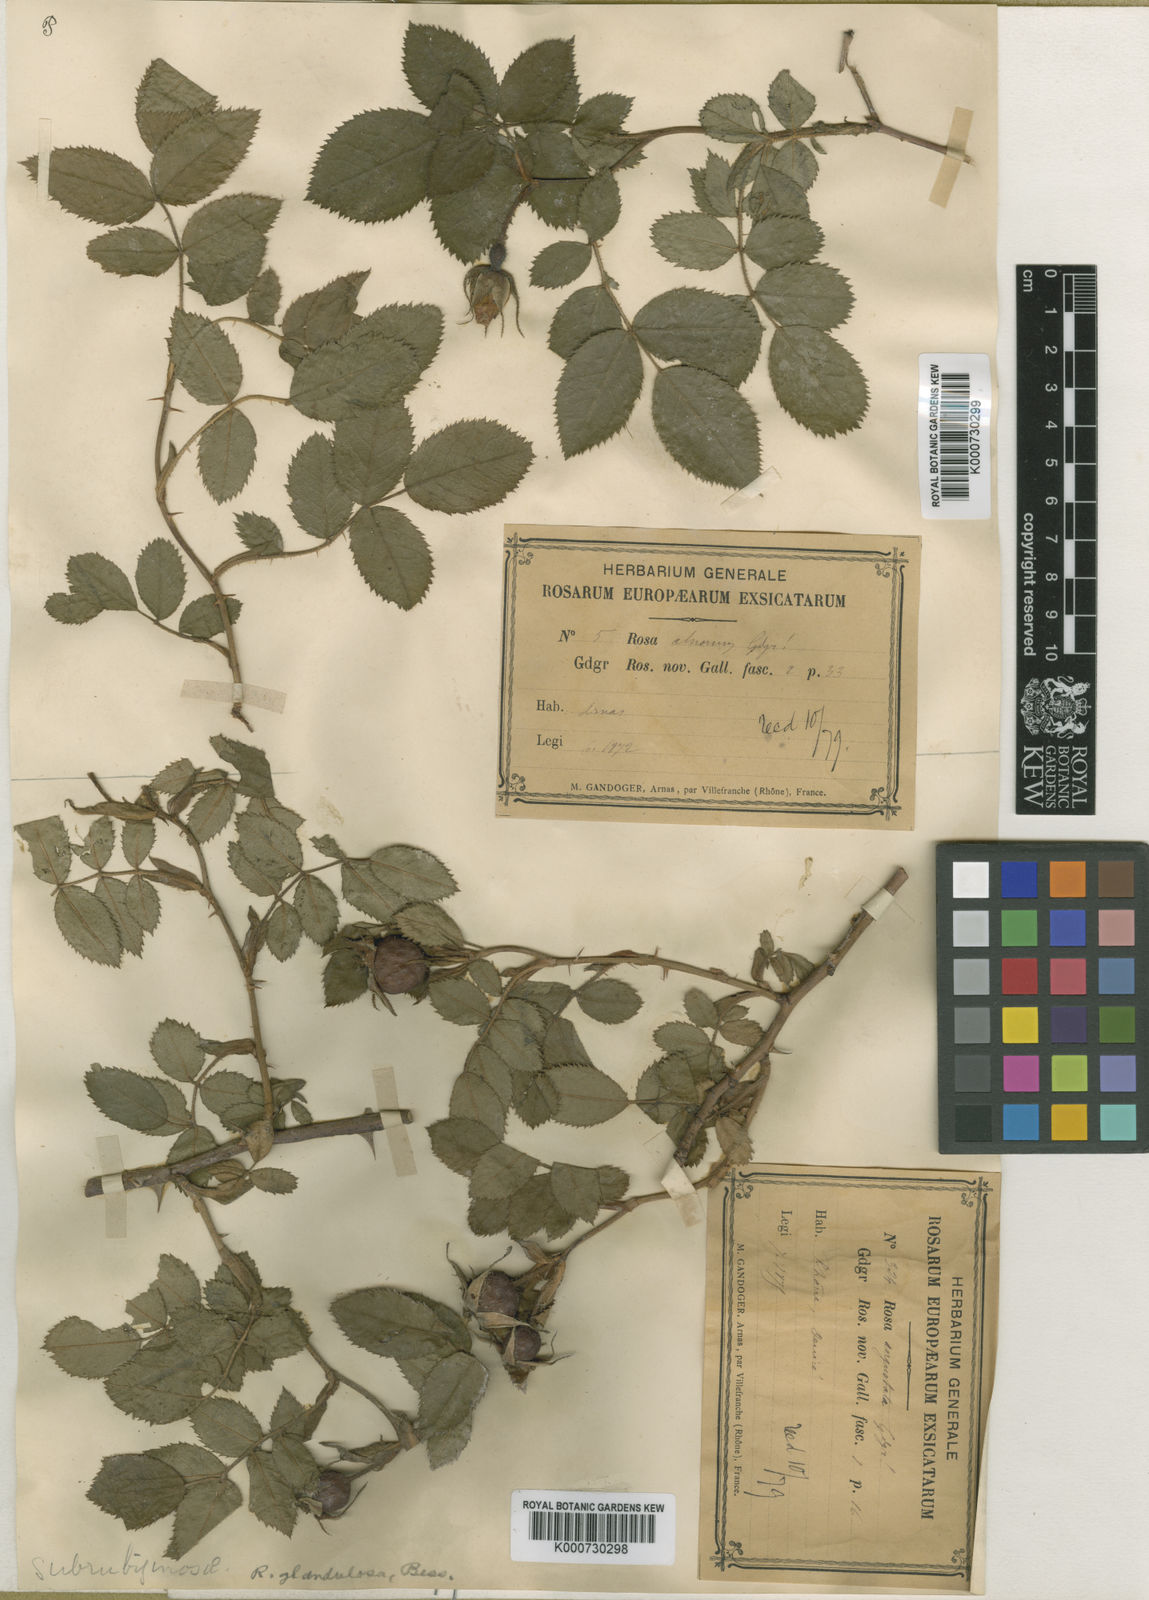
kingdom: Plantae
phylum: Tracheophyta
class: Magnoliopsida
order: Rosales
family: Rosaceae
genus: Rosa
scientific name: Rosa marginata
